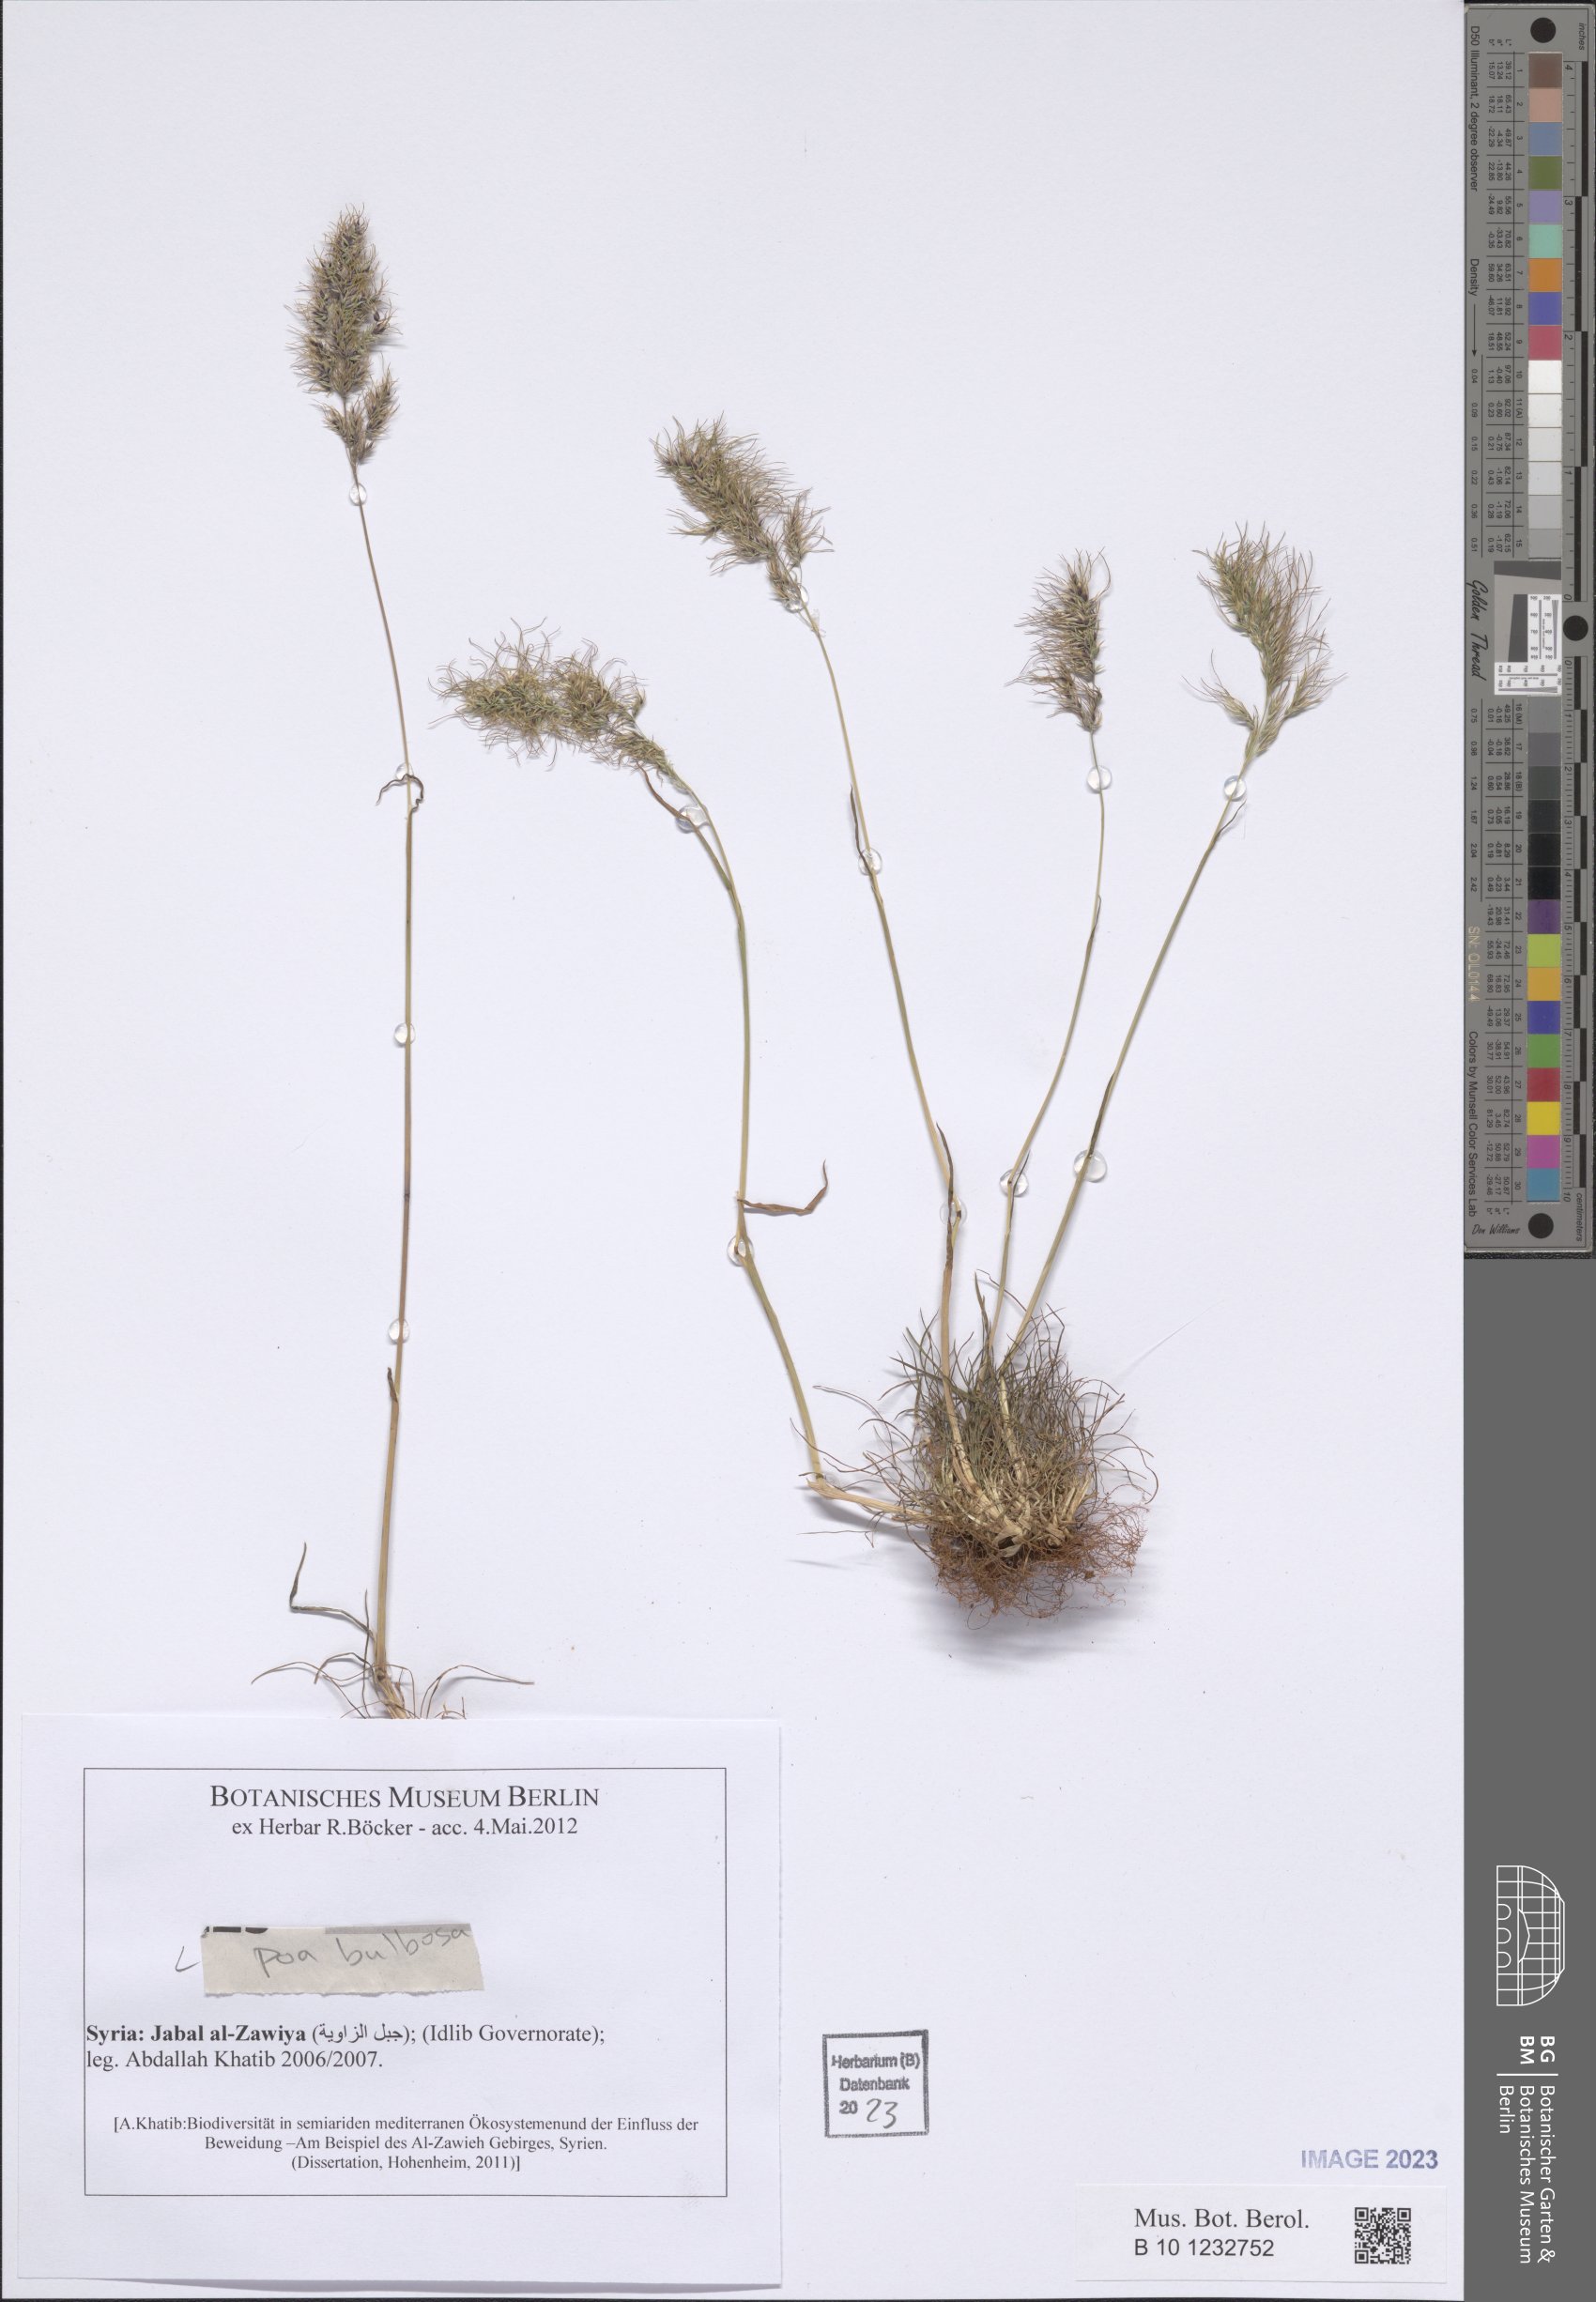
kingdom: Plantae
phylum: Tracheophyta
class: Liliopsida
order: Poales
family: Poaceae
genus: Poa
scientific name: Poa bulbosa
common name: Bulbous bluegrass
